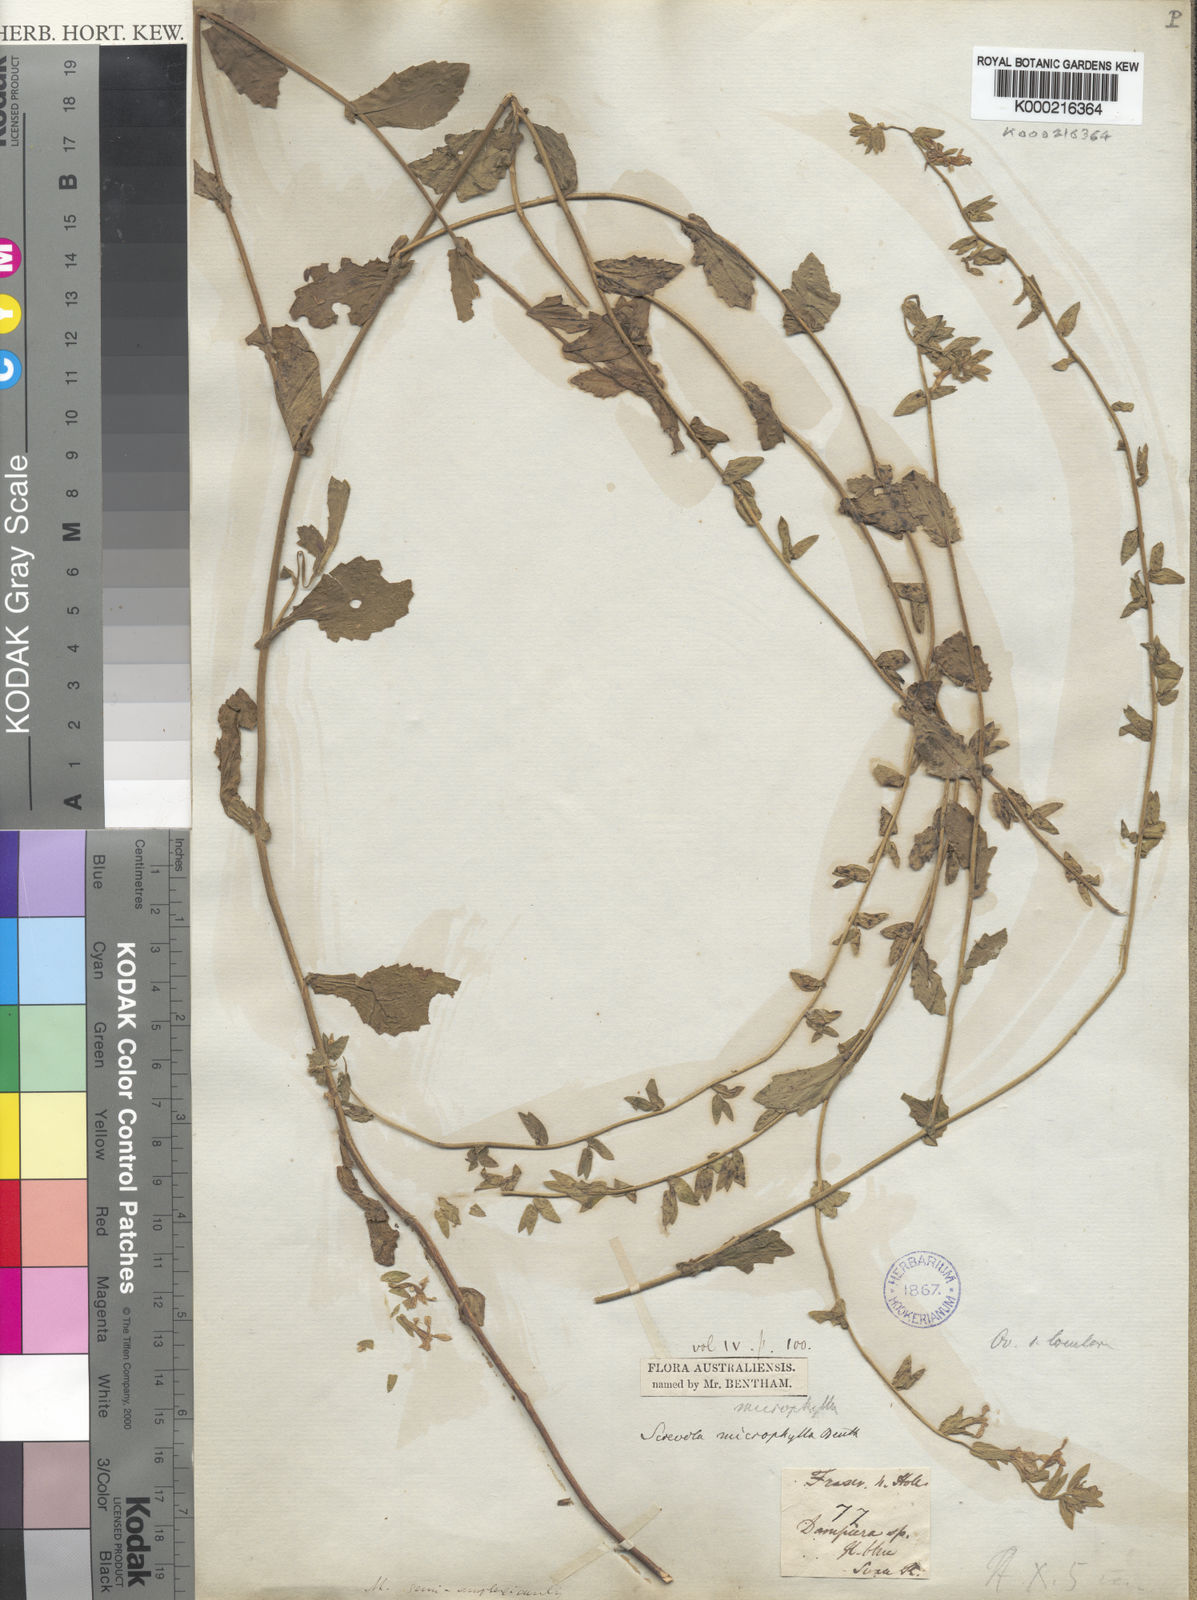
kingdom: Plantae
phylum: Tracheophyta
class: Magnoliopsida
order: Asterales
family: Goodeniaceae
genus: Scaevola
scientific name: Scaevola microphylla
